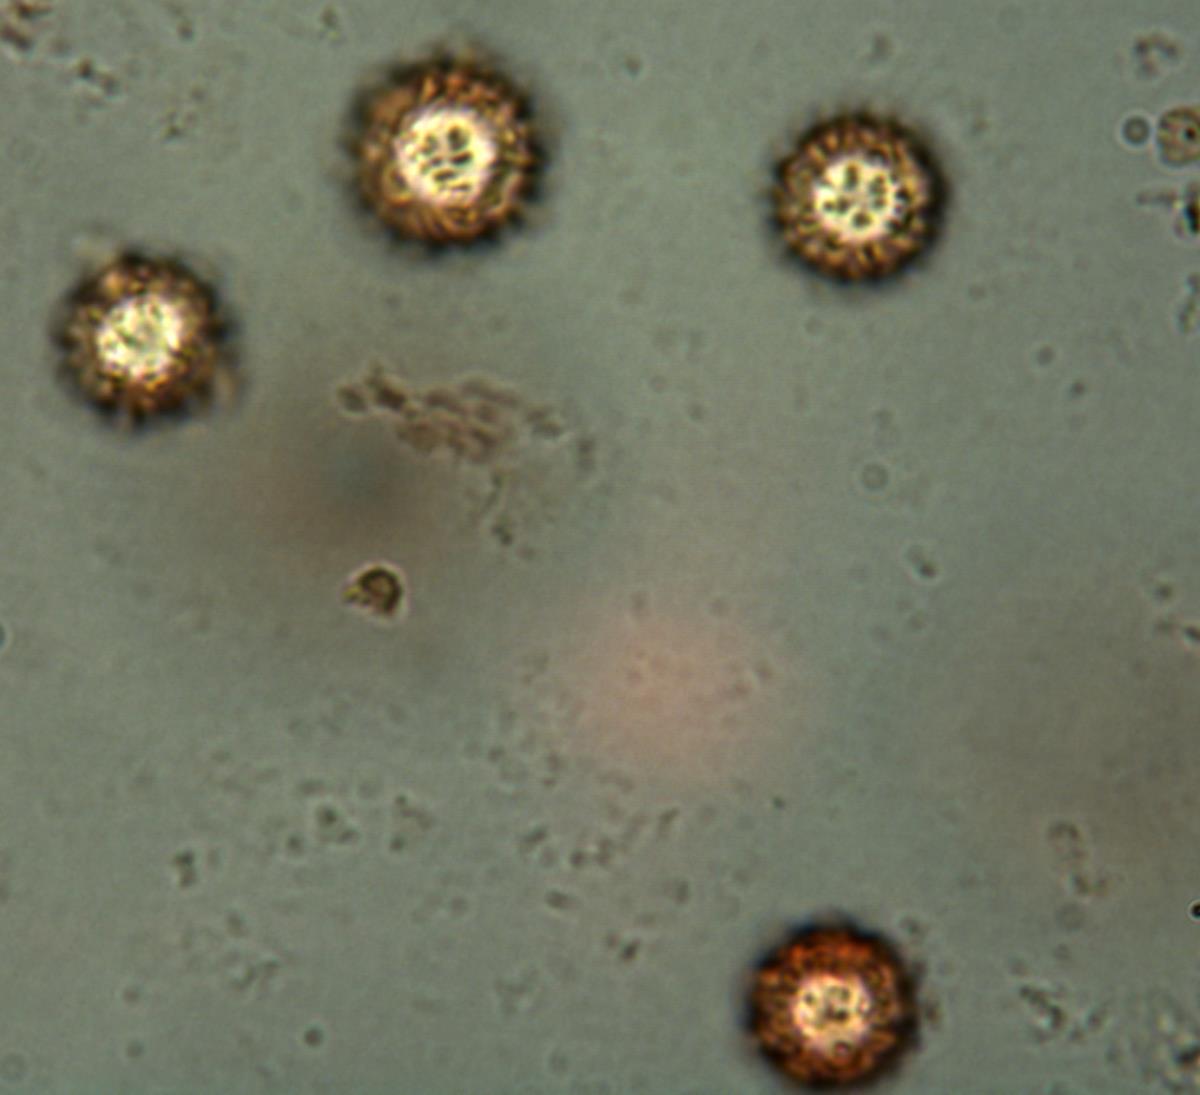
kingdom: Fungi
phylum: Basidiomycota
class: Agaricomycetes
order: Boletales
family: Sclerodermataceae
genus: Pisolithus
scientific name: Pisolithus thermaeus
